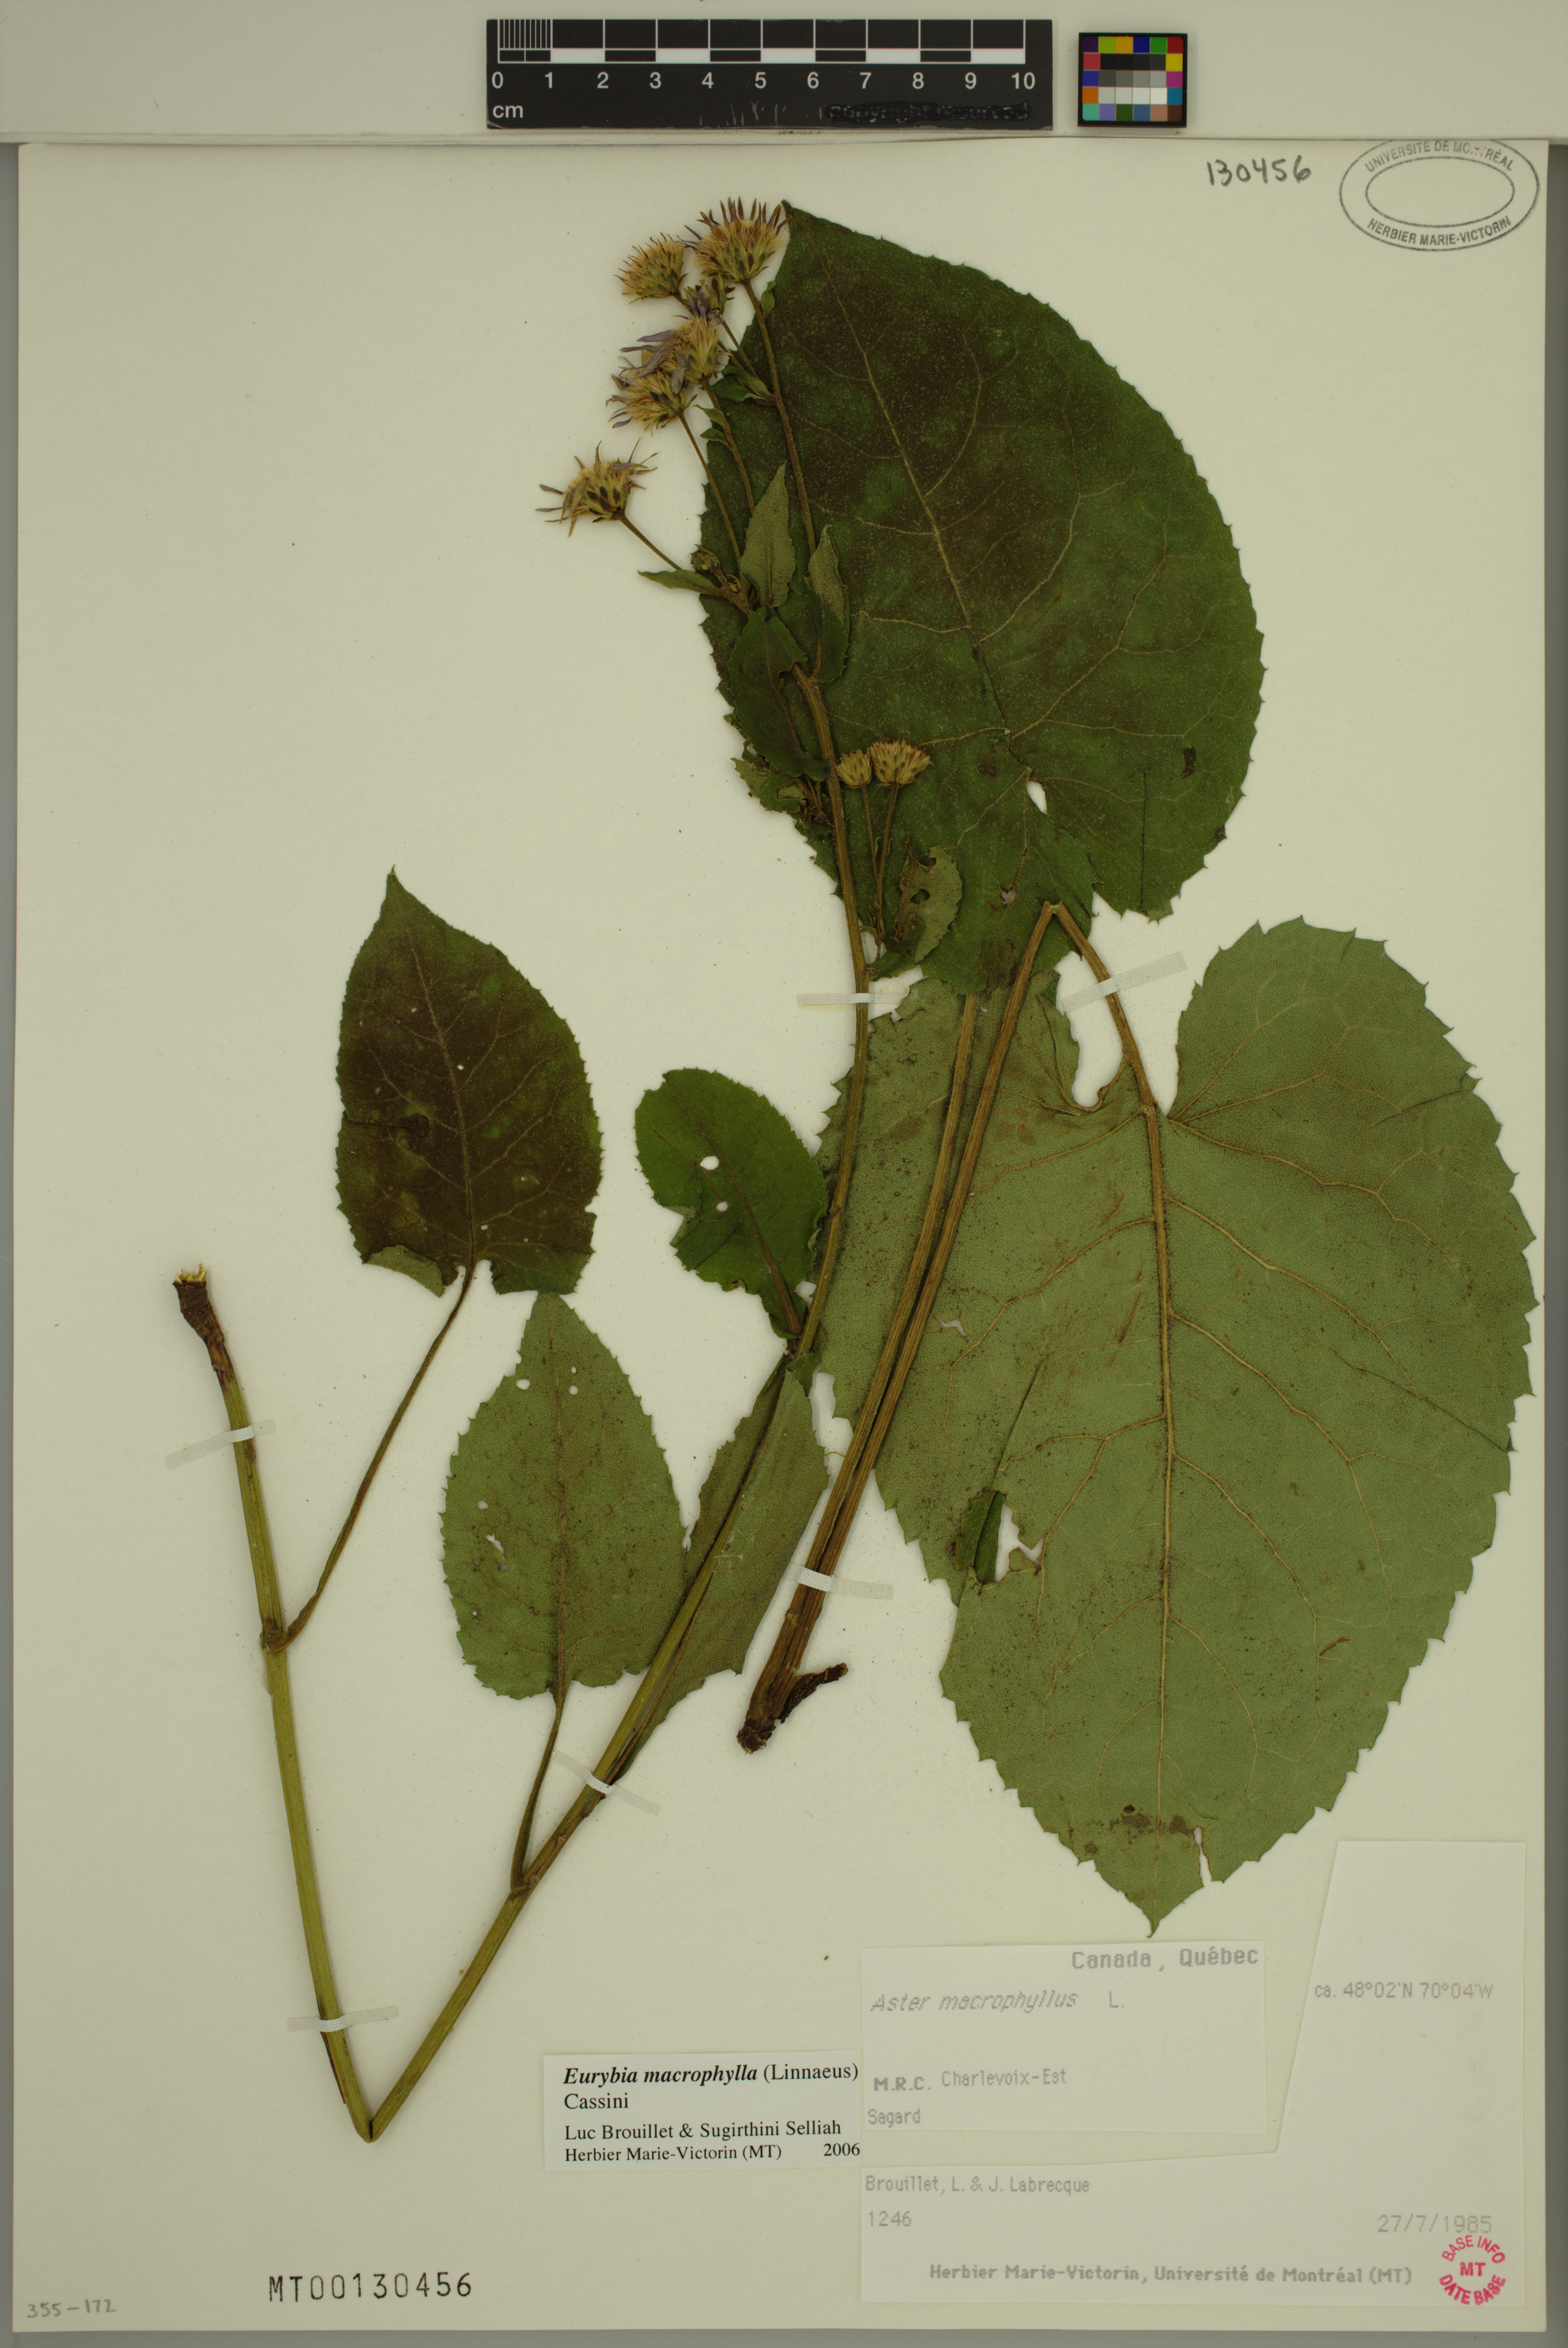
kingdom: Plantae
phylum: Tracheophyta
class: Magnoliopsida
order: Asterales
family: Asteraceae
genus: Eurybia
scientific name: Eurybia macrophylla
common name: Big-leaved aster
